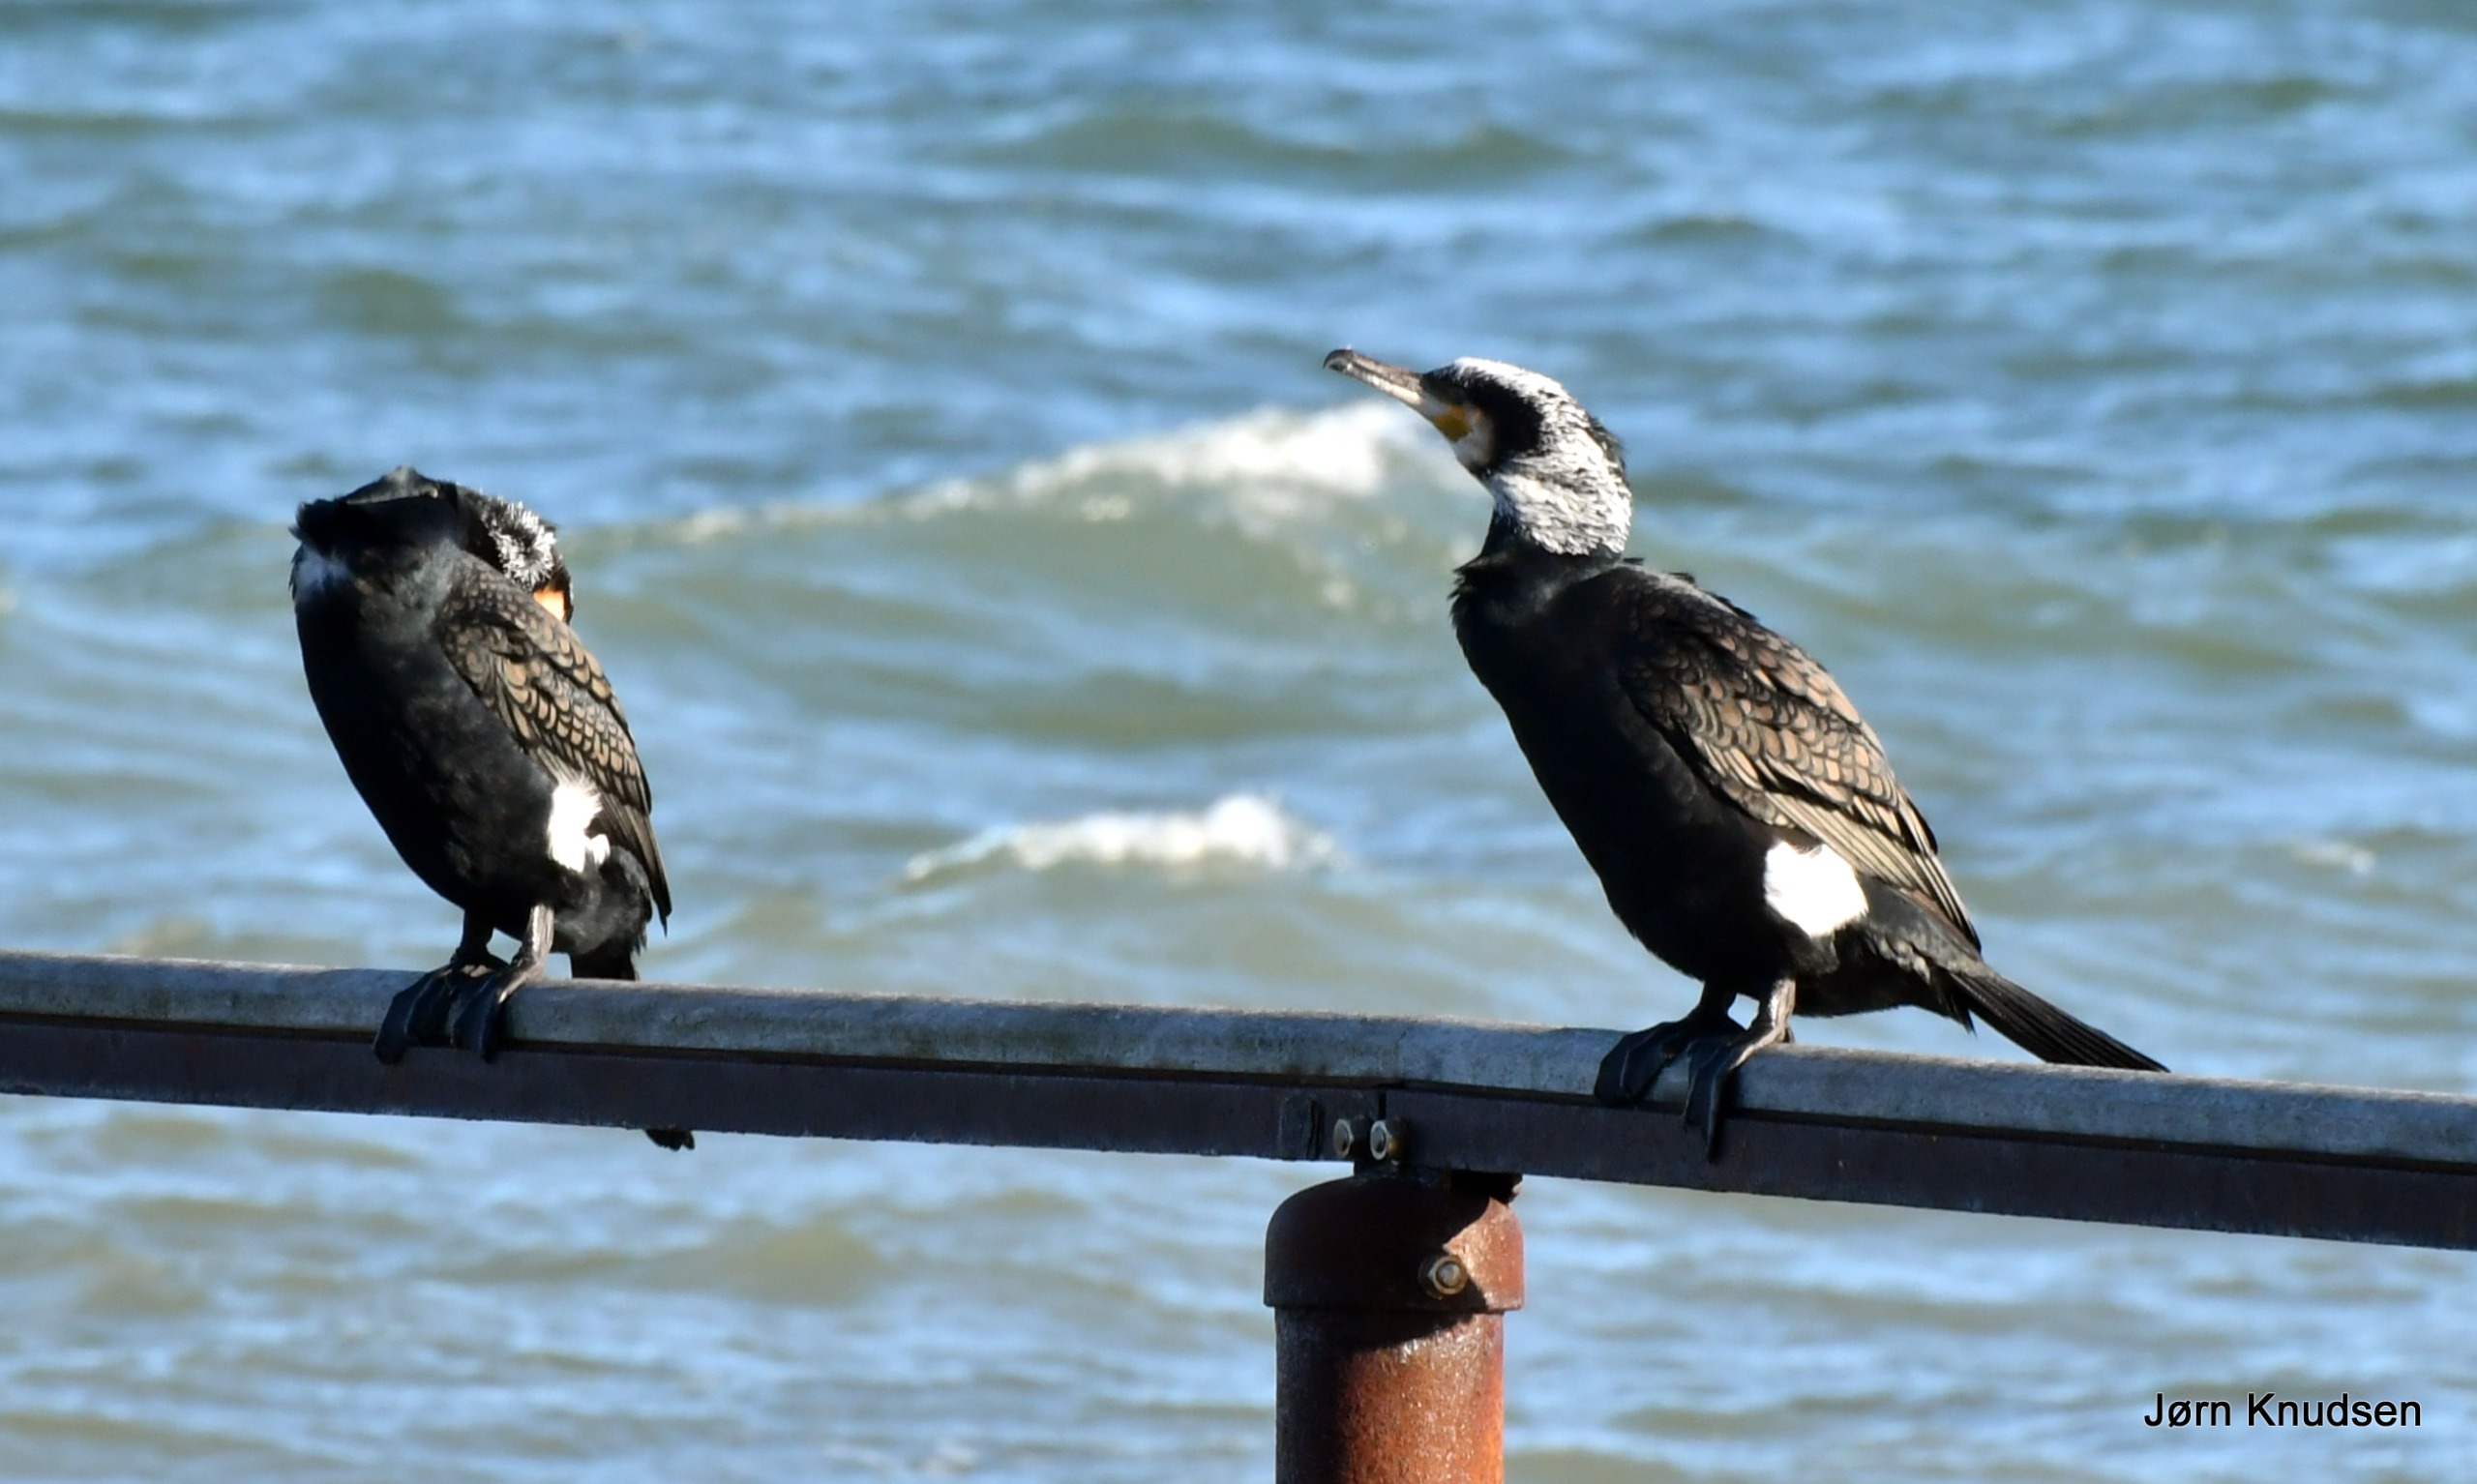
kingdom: Animalia
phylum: Chordata
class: Aves
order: Suliformes
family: Phalacrocoracidae
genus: Phalacrocorax
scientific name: Phalacrocorax carbo
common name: Mellemskarv
